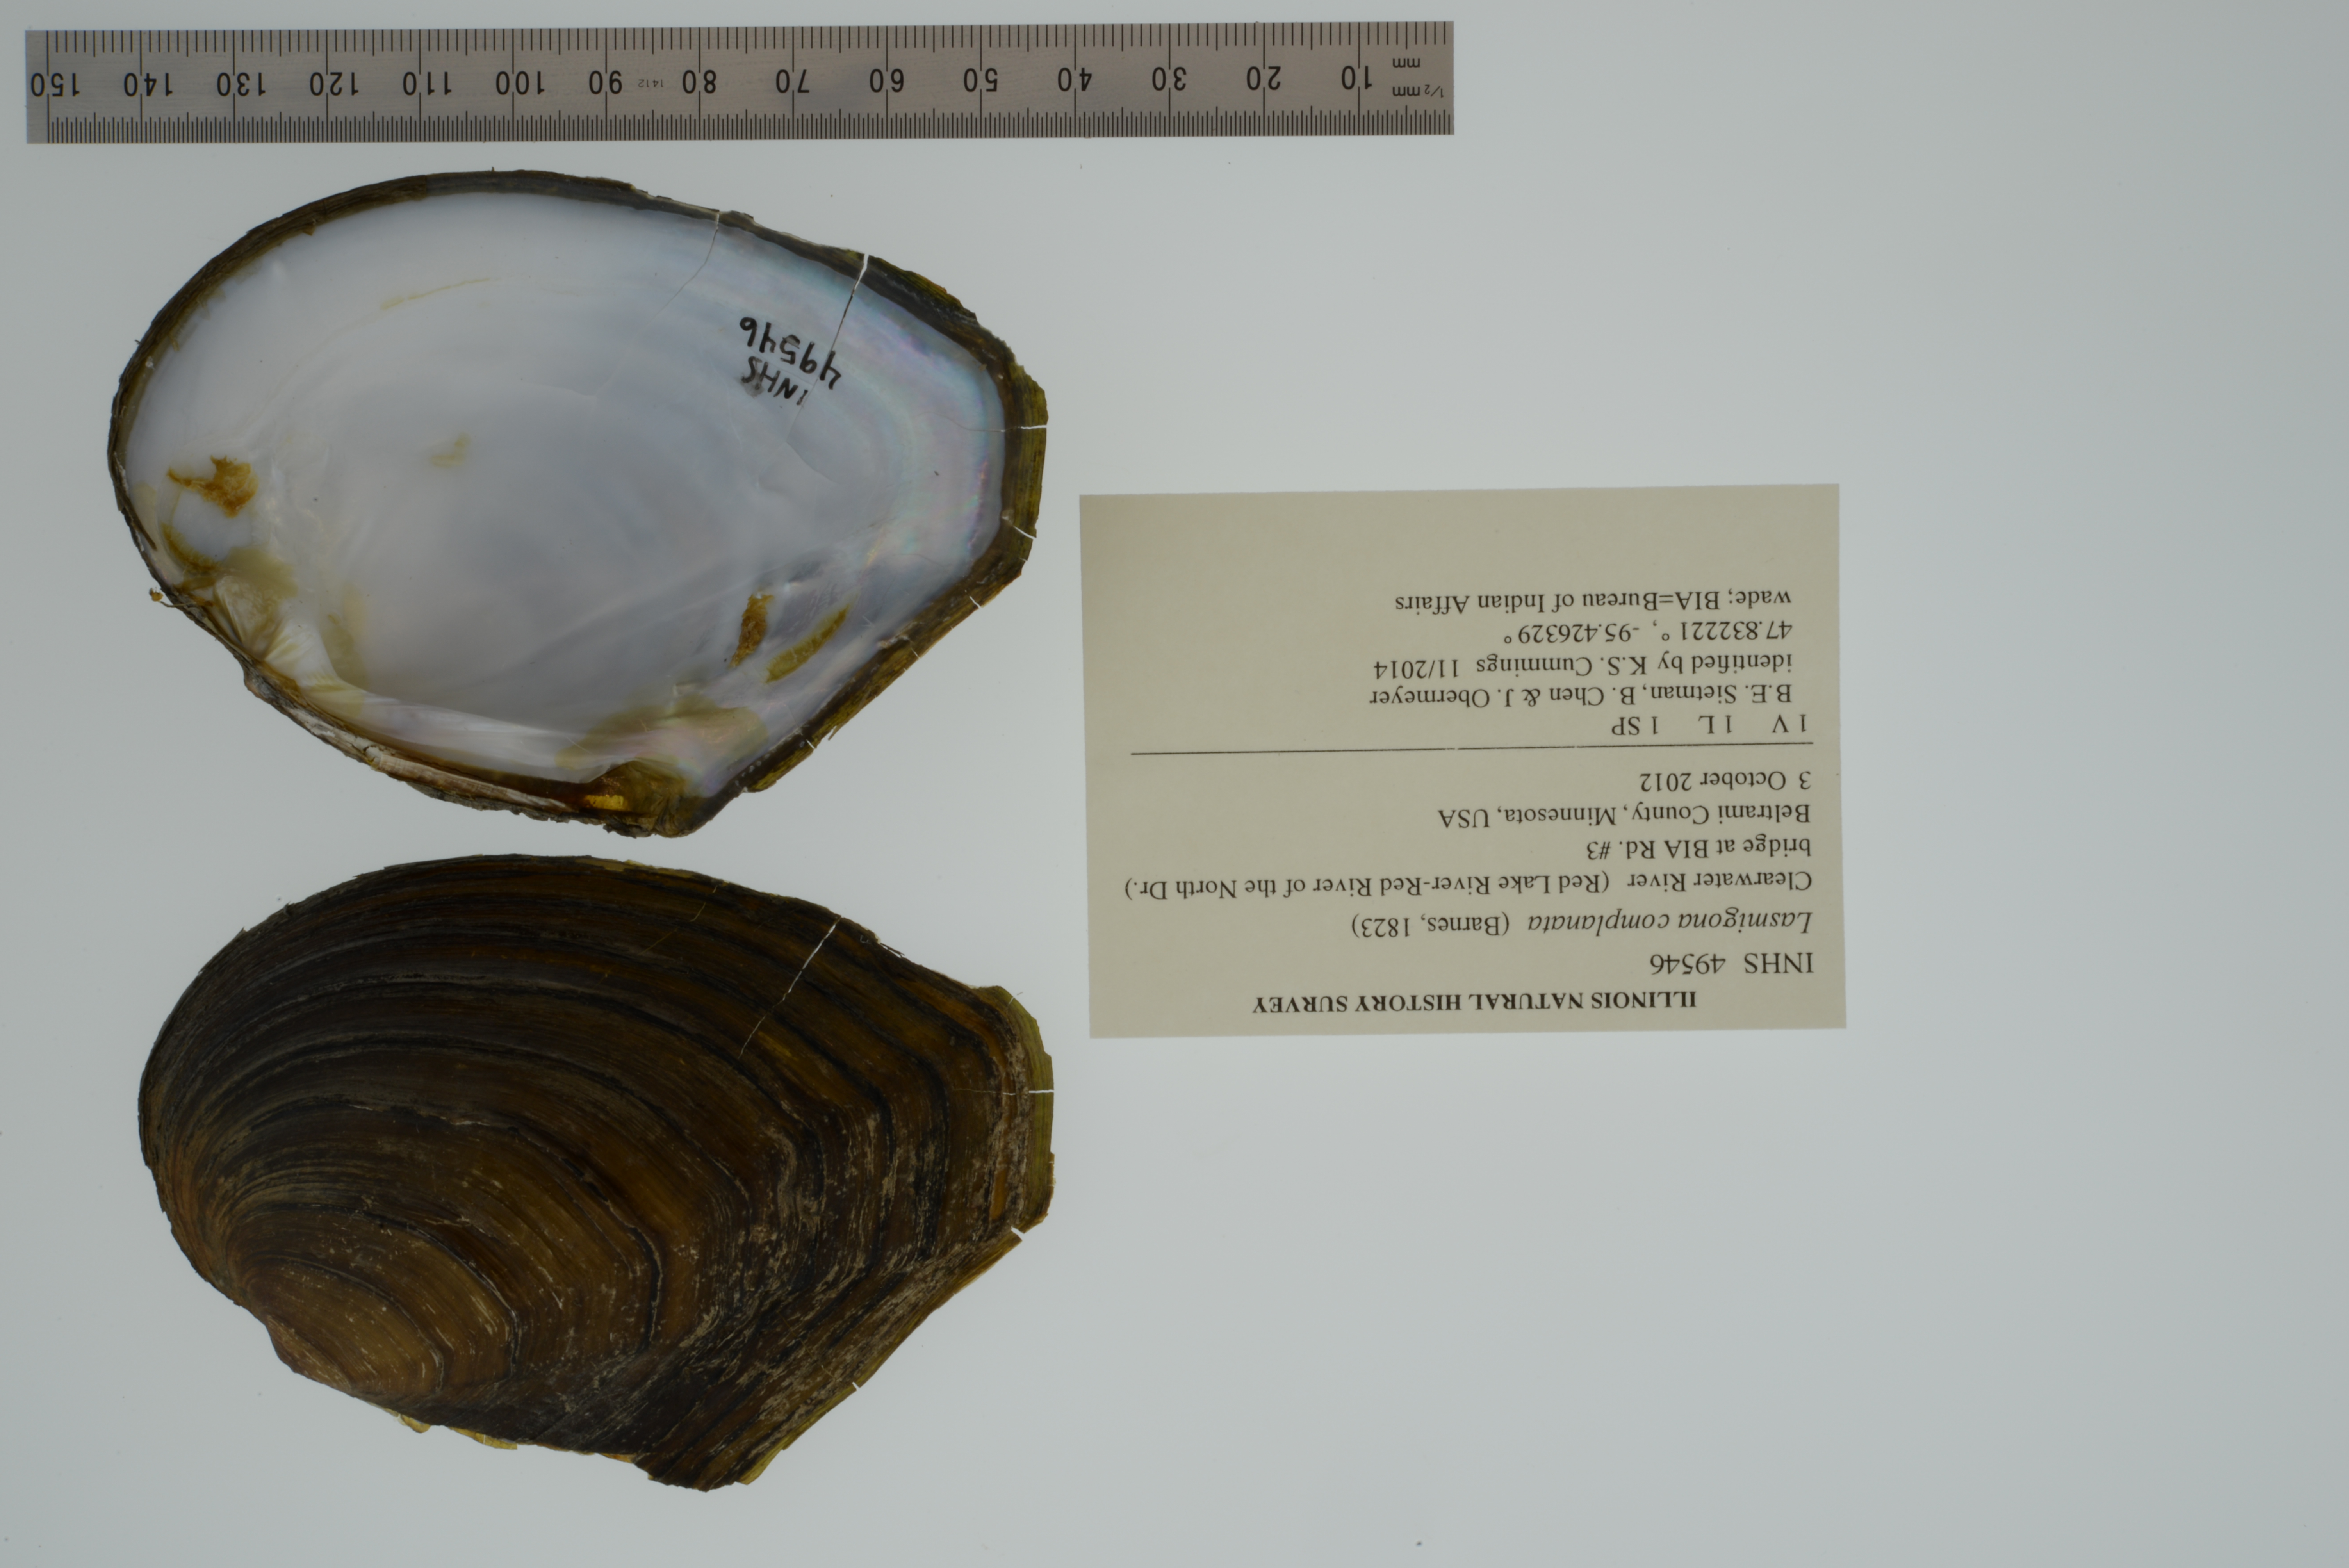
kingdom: Animalia
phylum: Mollusca
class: Bivalvia
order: Unionida
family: Unionidae
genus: Lasmigona
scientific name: Lasmigona complanata
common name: White heelsplitter
